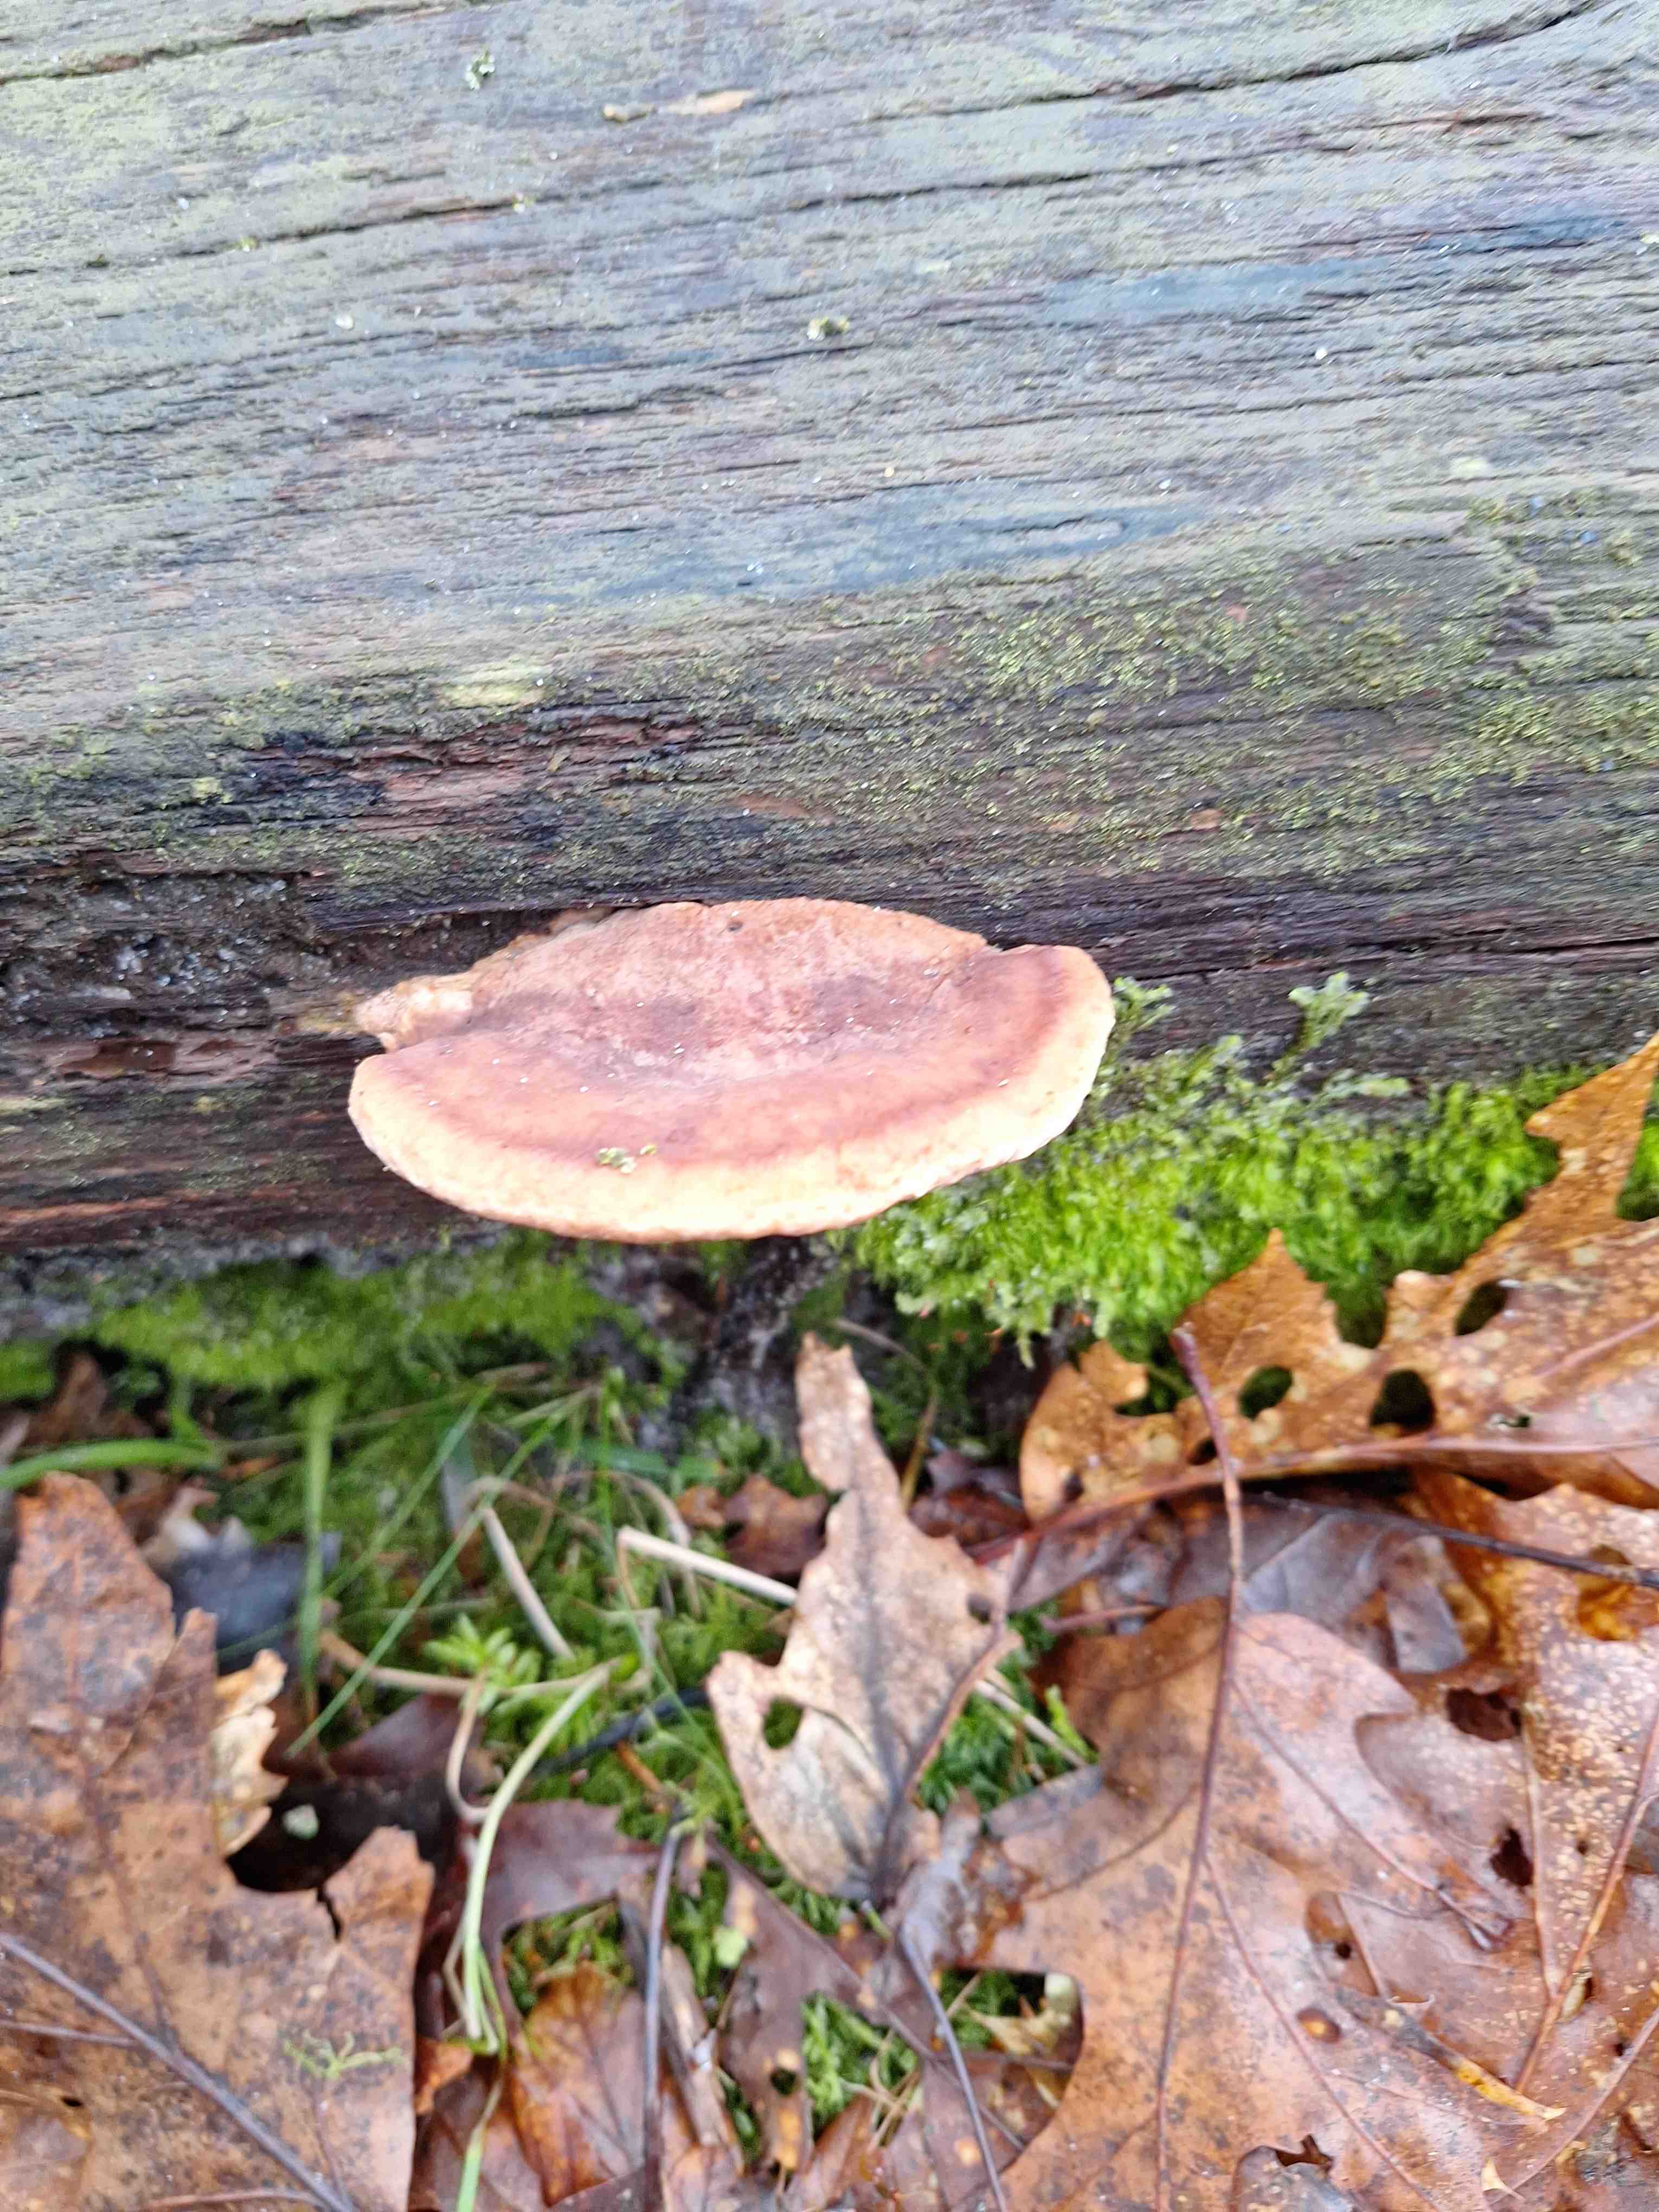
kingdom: Fungi
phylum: Basidiomycota
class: Agaricomycetes
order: Polyporales
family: Fomitopsidaceae
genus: Daedalea
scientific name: Daedalea quercina
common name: ege-labyrintsvamp
